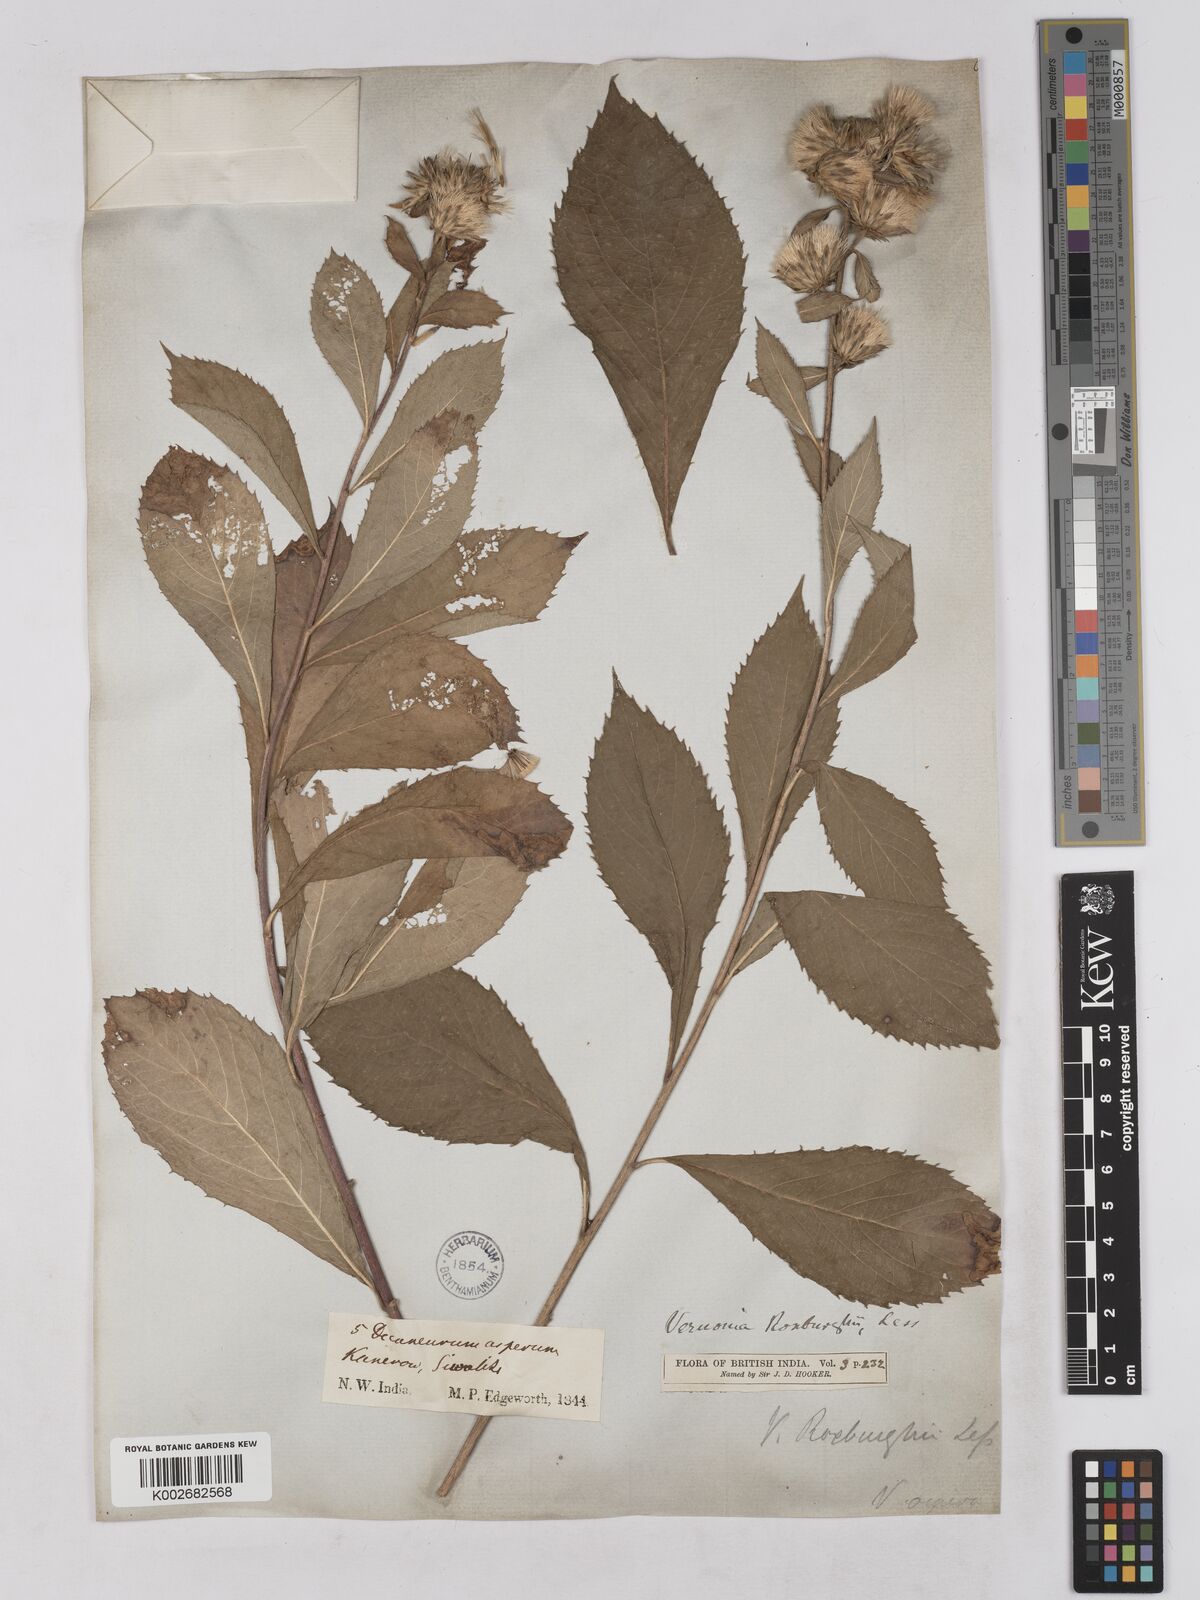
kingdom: Plantae
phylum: Tracheophyta
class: Magnoliopsida
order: Asterales
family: Asteraceae
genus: Acilepis
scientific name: Acilepis aspera
